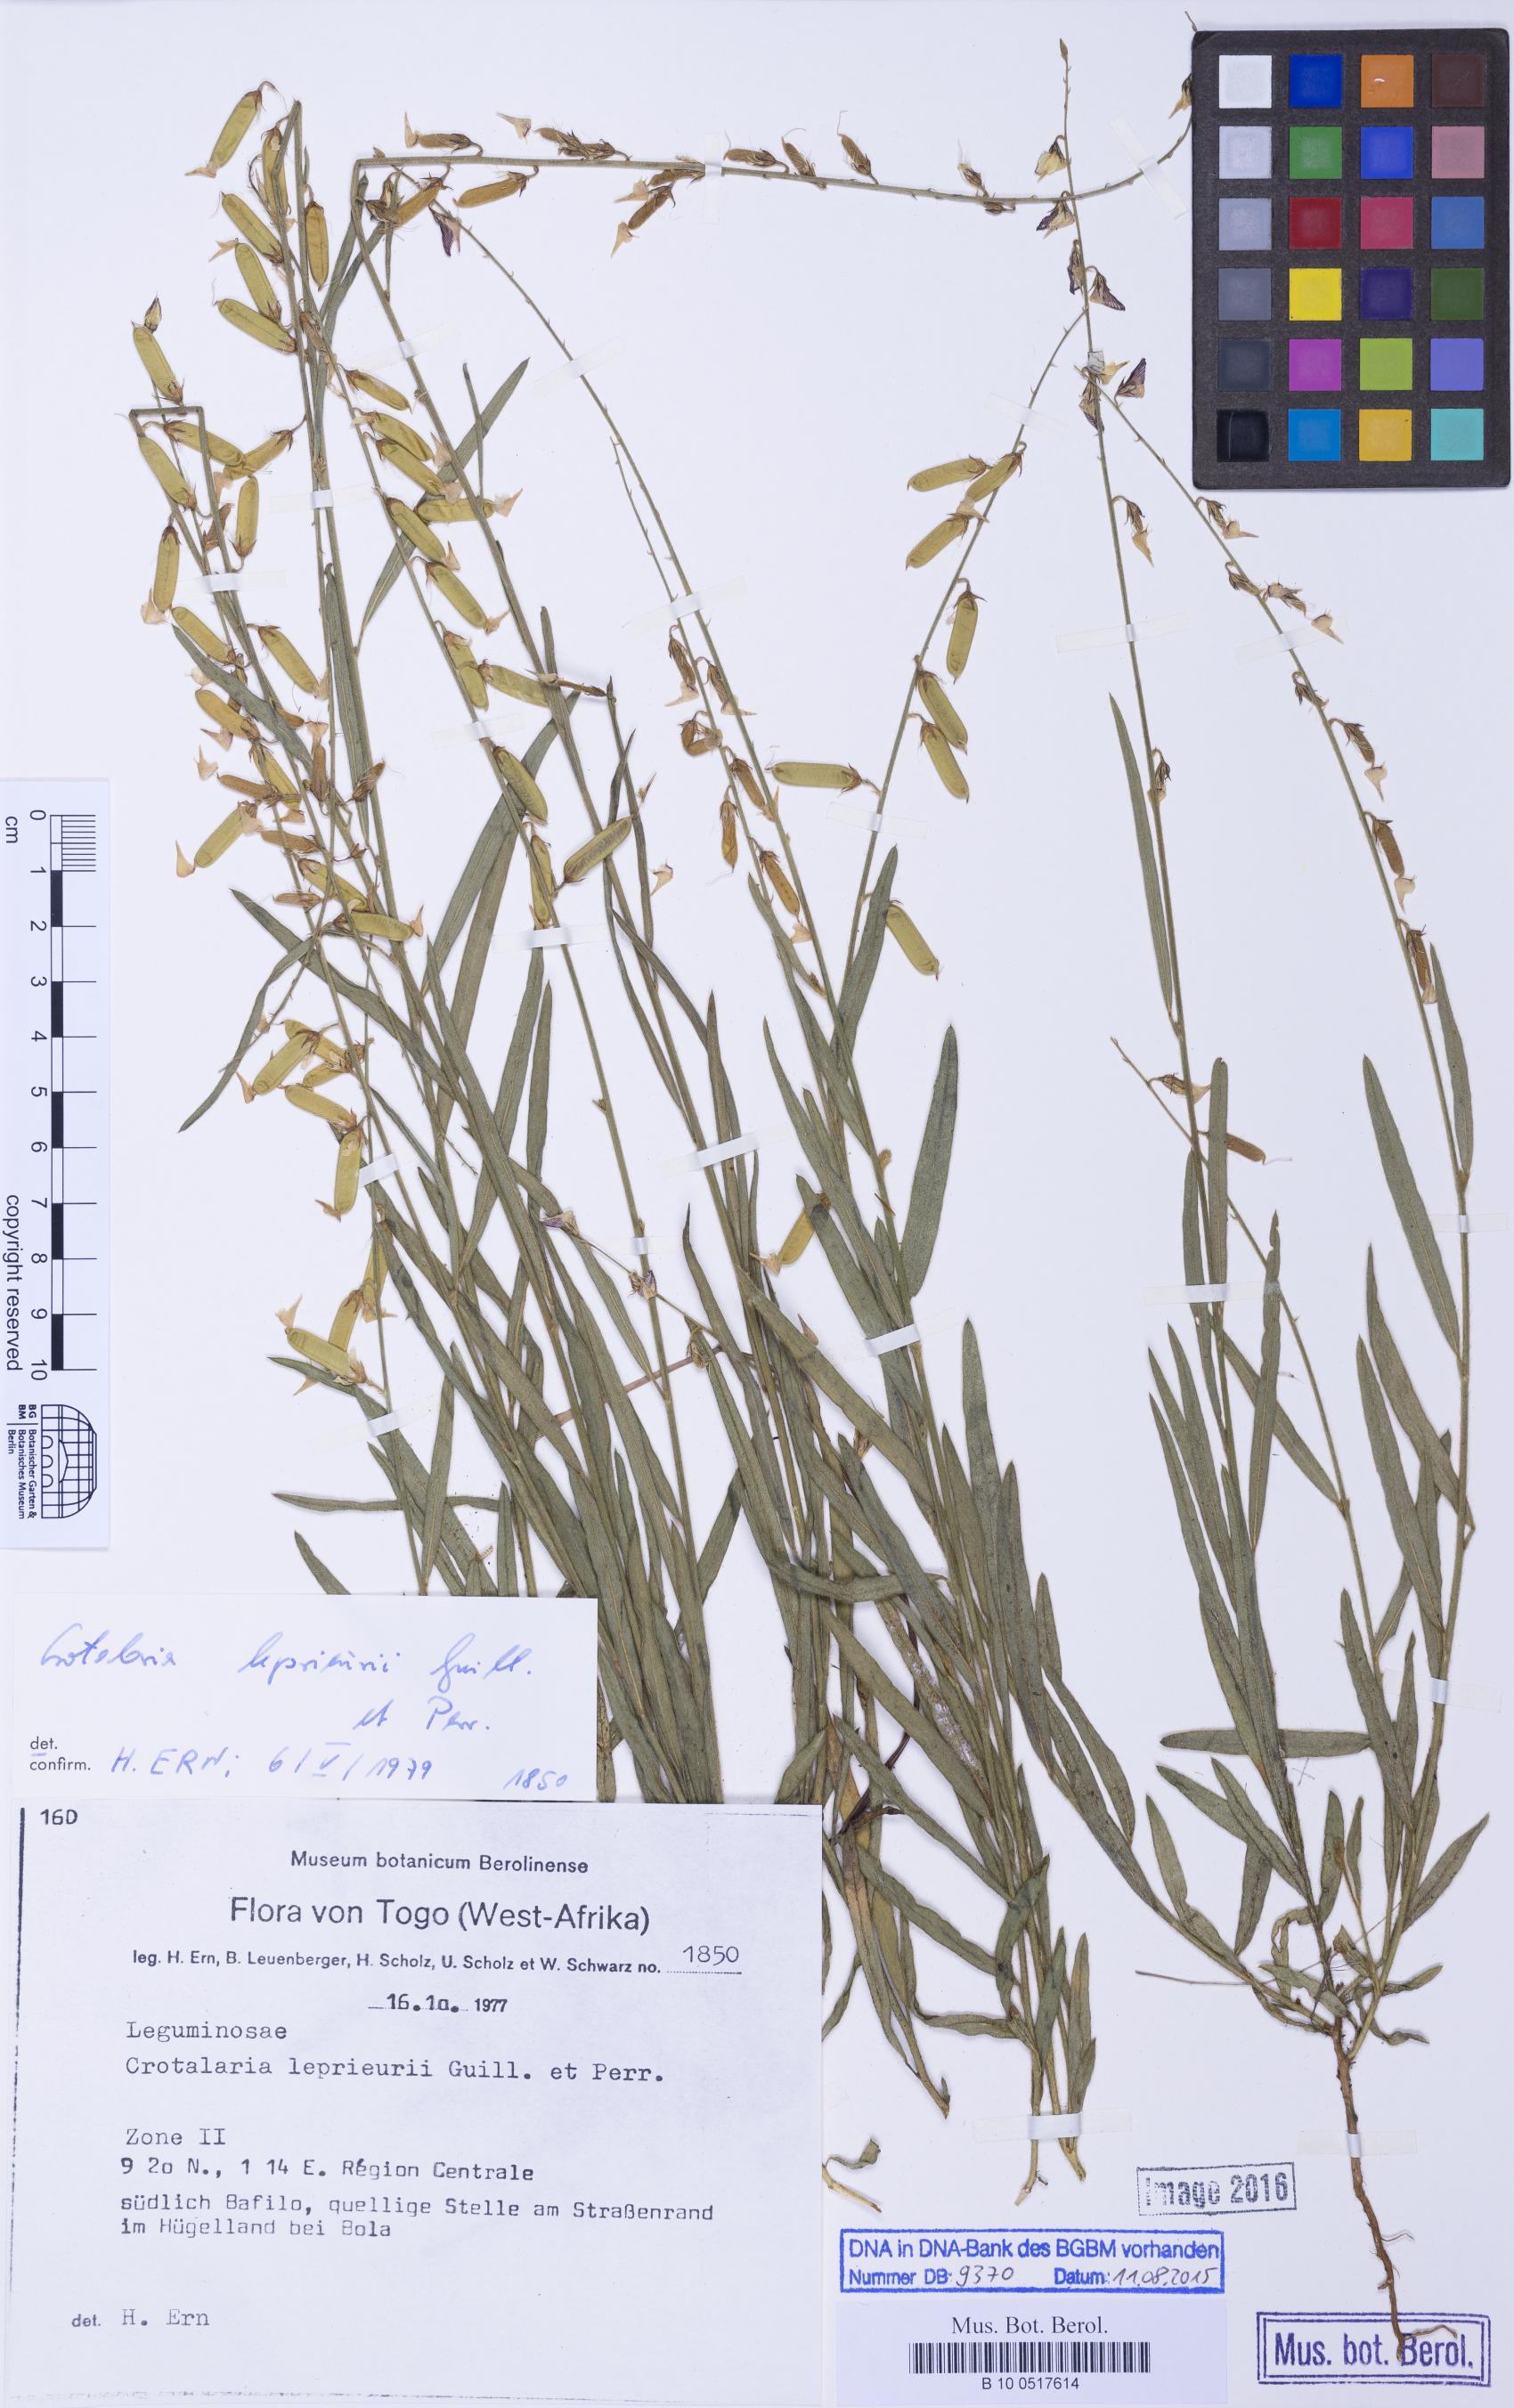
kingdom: Plantae
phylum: Tracheophyta
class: Magnoliopsida
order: Fabales
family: Fabaceae
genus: Crotalaria
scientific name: Crotalaria leprieurii
